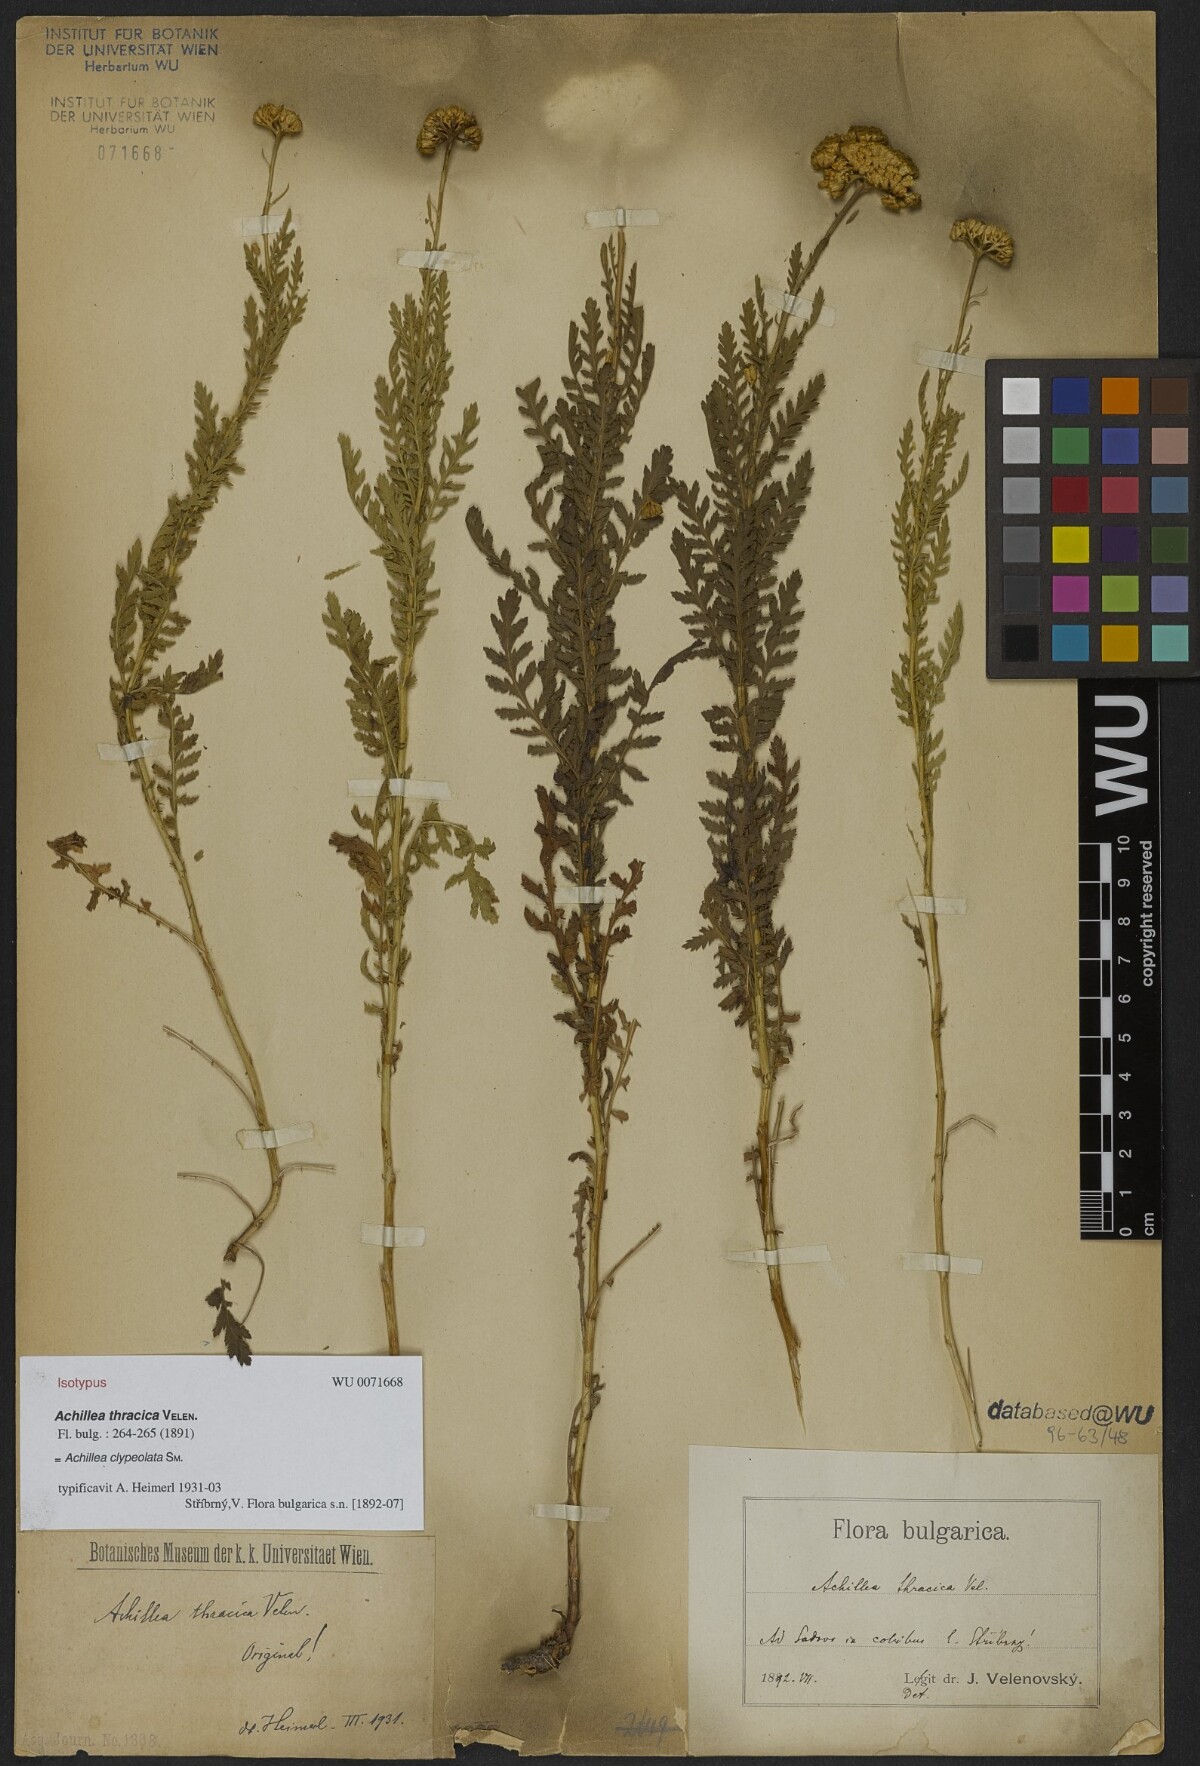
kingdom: Plantae
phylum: Tracheophyta
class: Magnoliopsida
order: Asterales
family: Asteraceae
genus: Achillea
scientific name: Achillea thracica
